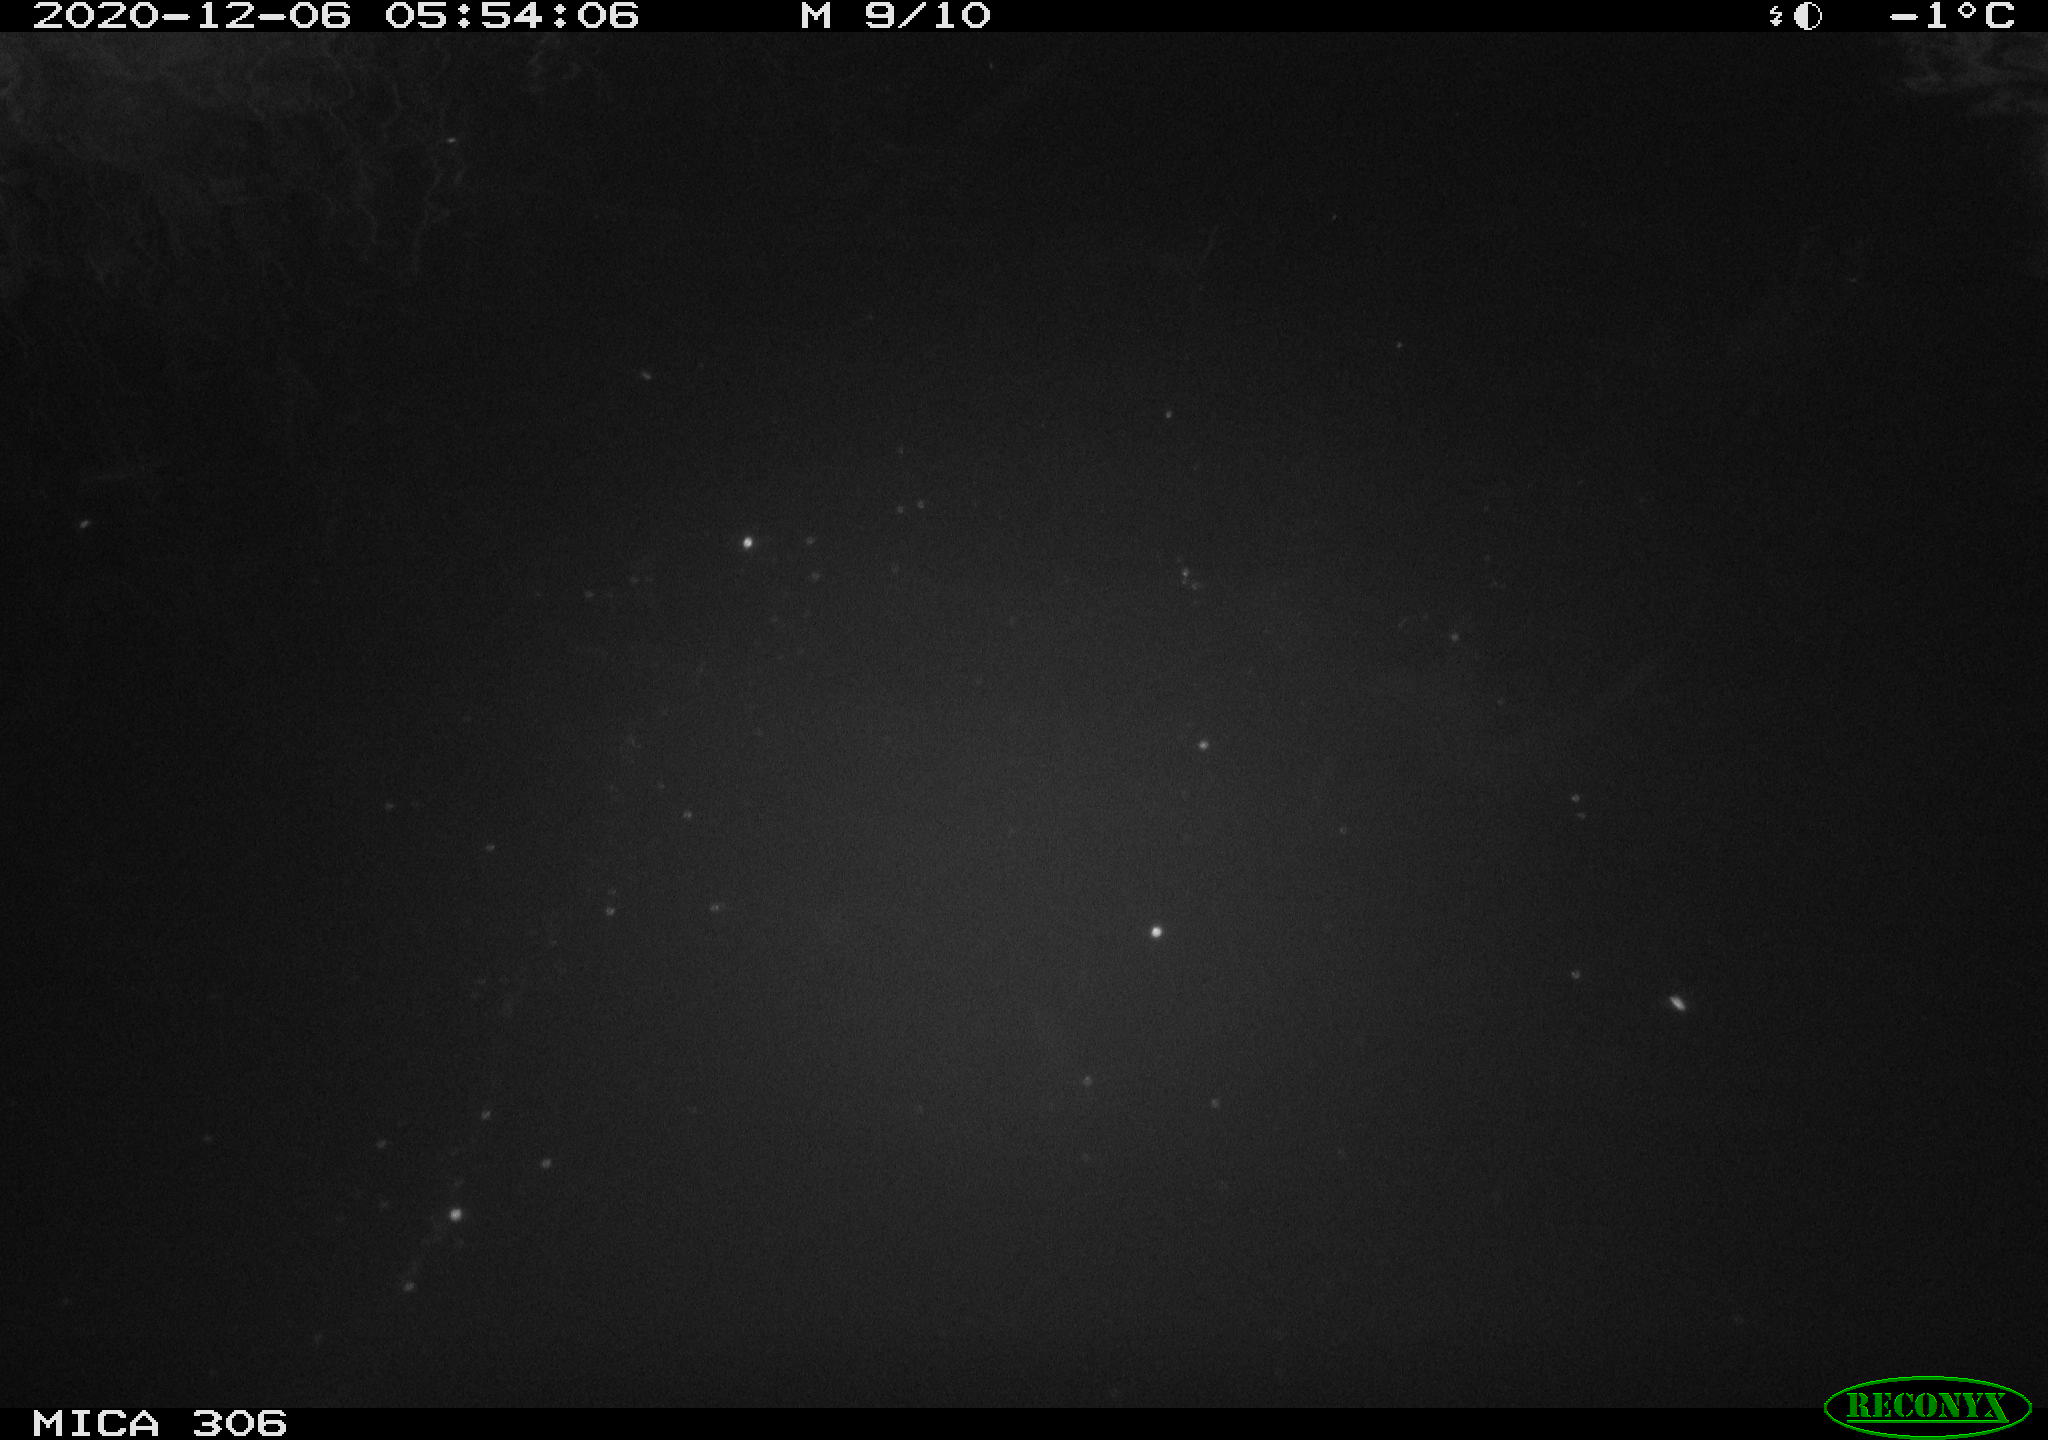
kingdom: Animalia
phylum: Chordata
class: Mammalia
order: Rodentia
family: Cricetidae
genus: Ondatra
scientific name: Ondatra zibethicus
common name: Muskrat
